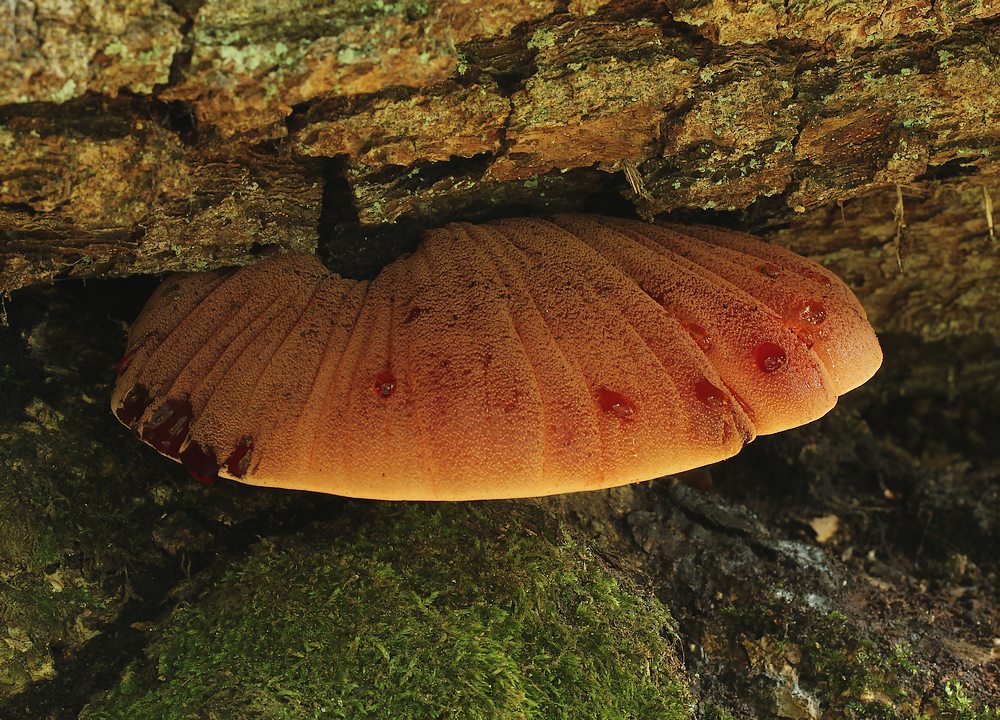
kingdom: Fungi
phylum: Basidiomycota
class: Agaricomycetes
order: Agaricales
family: Fistulinaceae
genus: Fistulina
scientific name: Fistulina hepatica
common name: oksetunge
